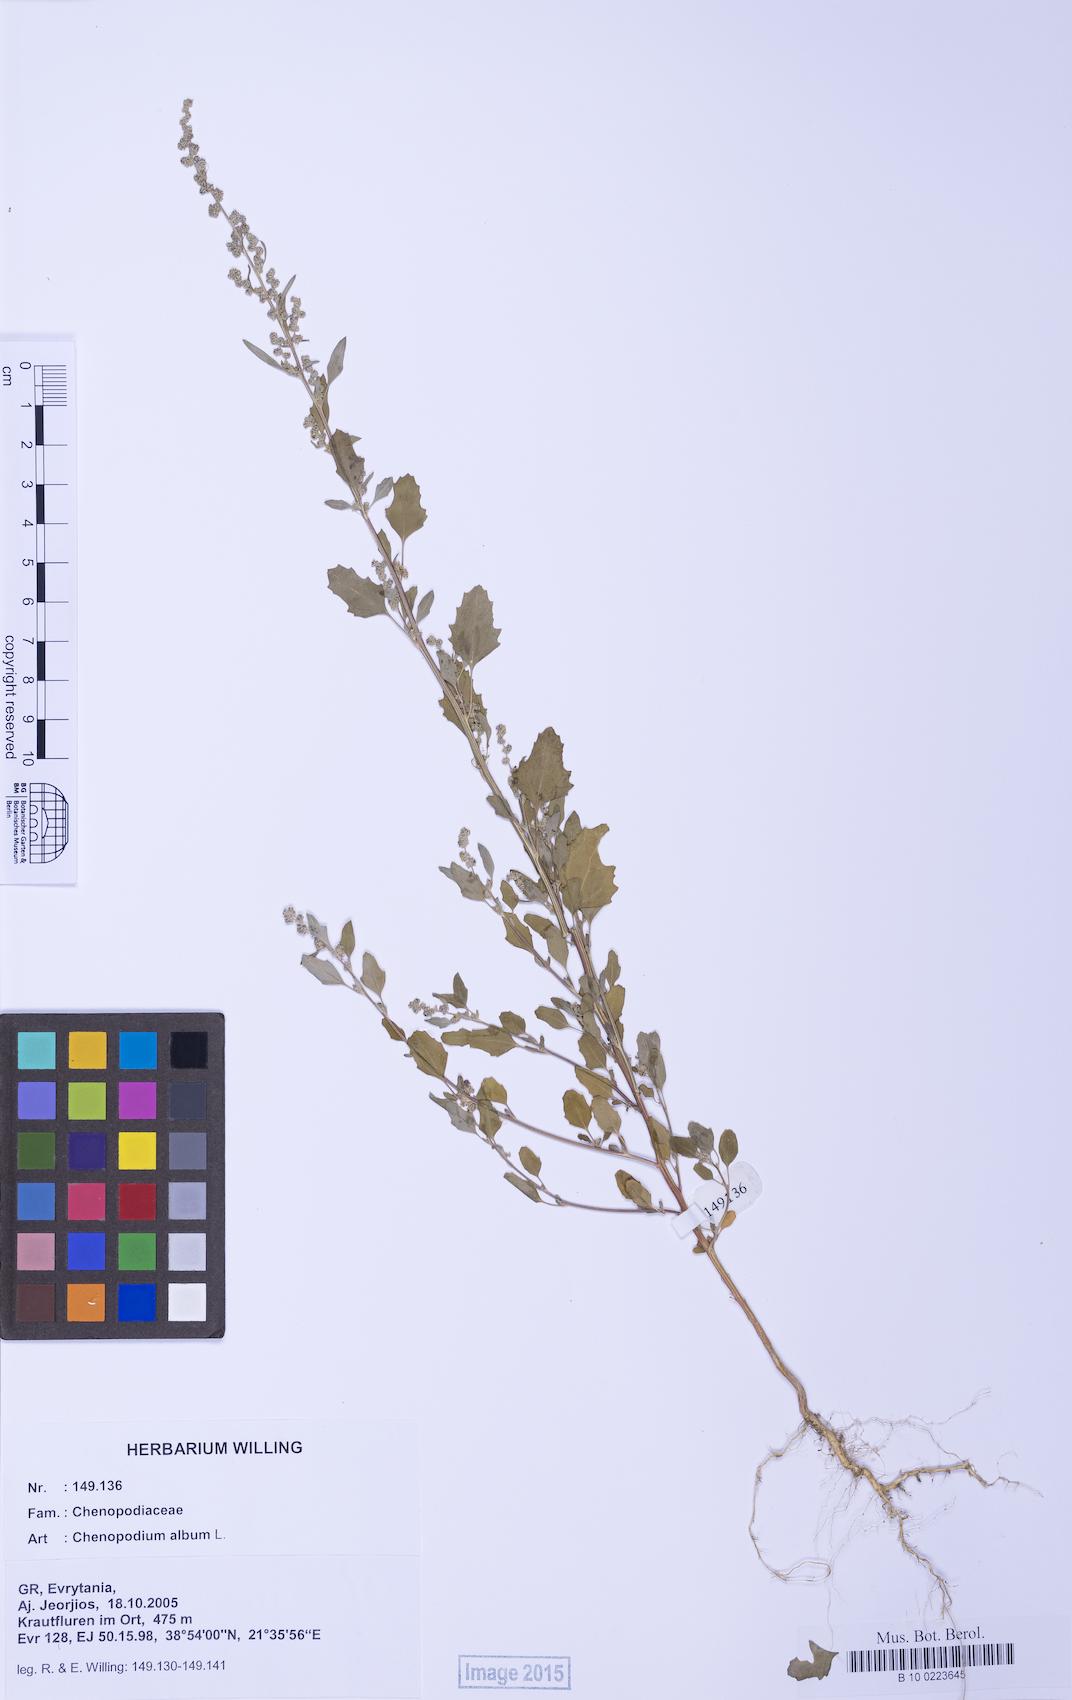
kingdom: Plantae
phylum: Tracheophyta
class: Magnoliopsida
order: Caryophyllales
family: Amaranthaceae
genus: Chenopodium
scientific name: Chenopodium album
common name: Fat-hen
